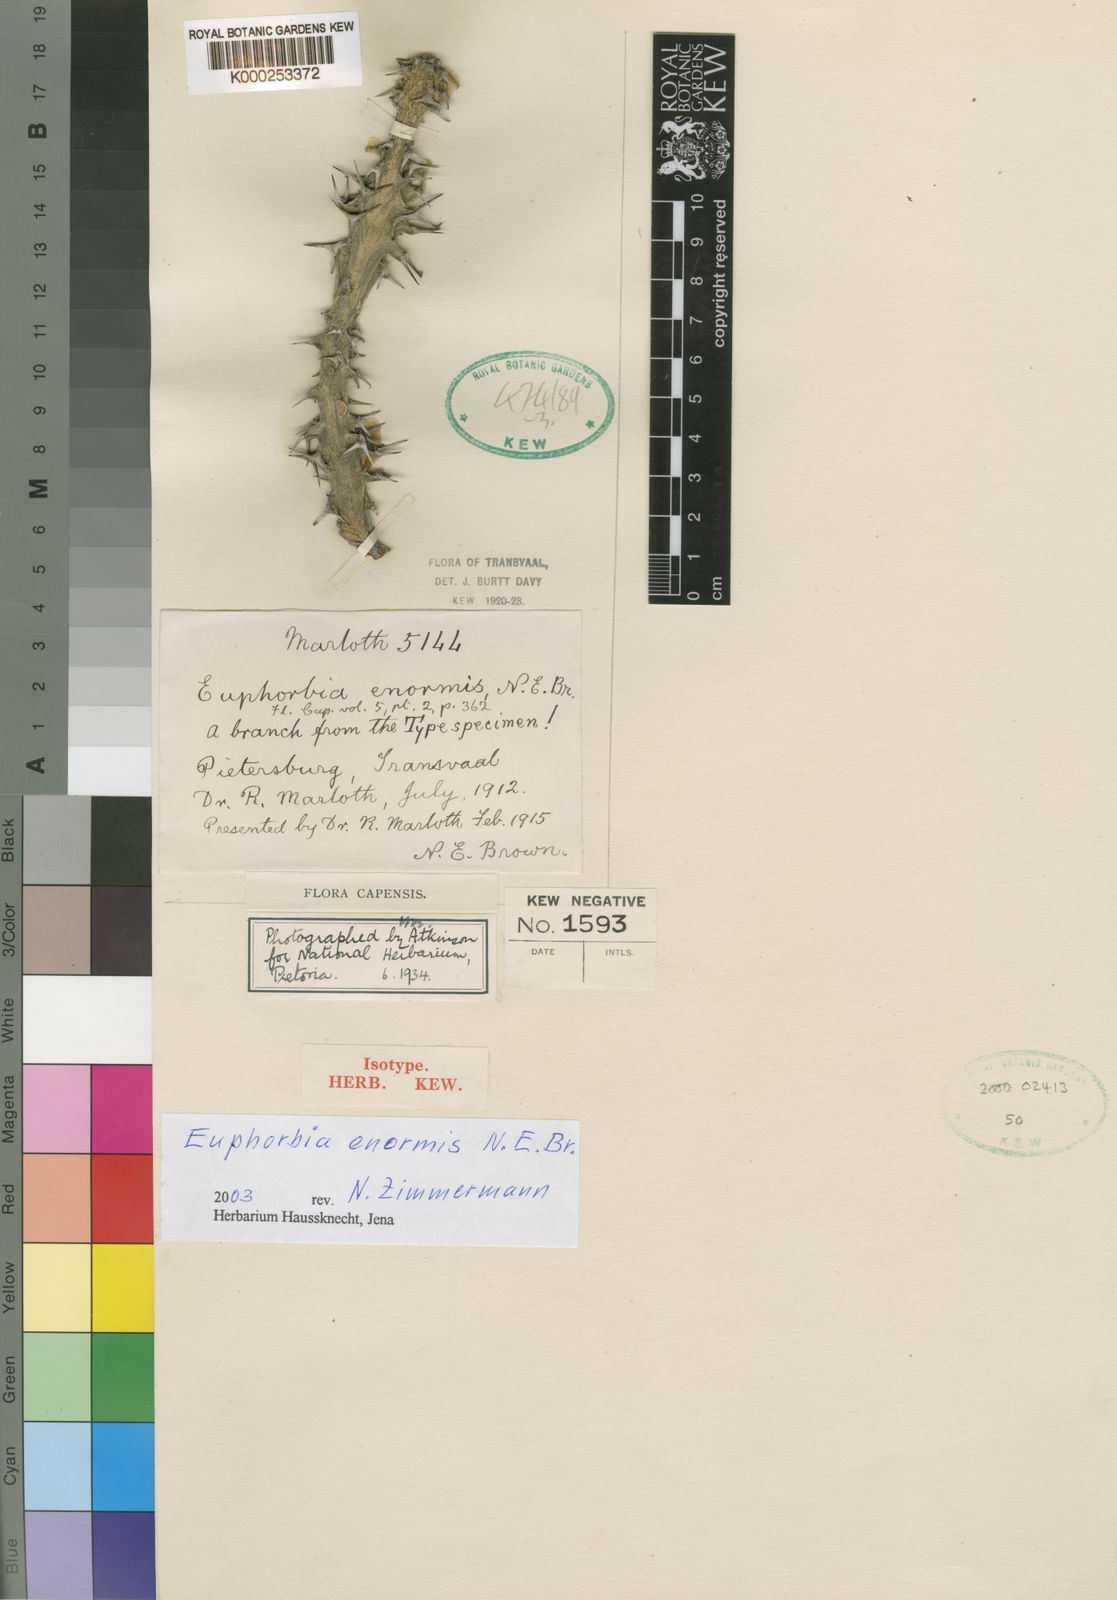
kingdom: Plantae
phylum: Tracheophyta
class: Magnoliopsida
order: Malpighiales
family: Euphorbiaceae
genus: Euphorbia
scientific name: Euphorbia enormis
